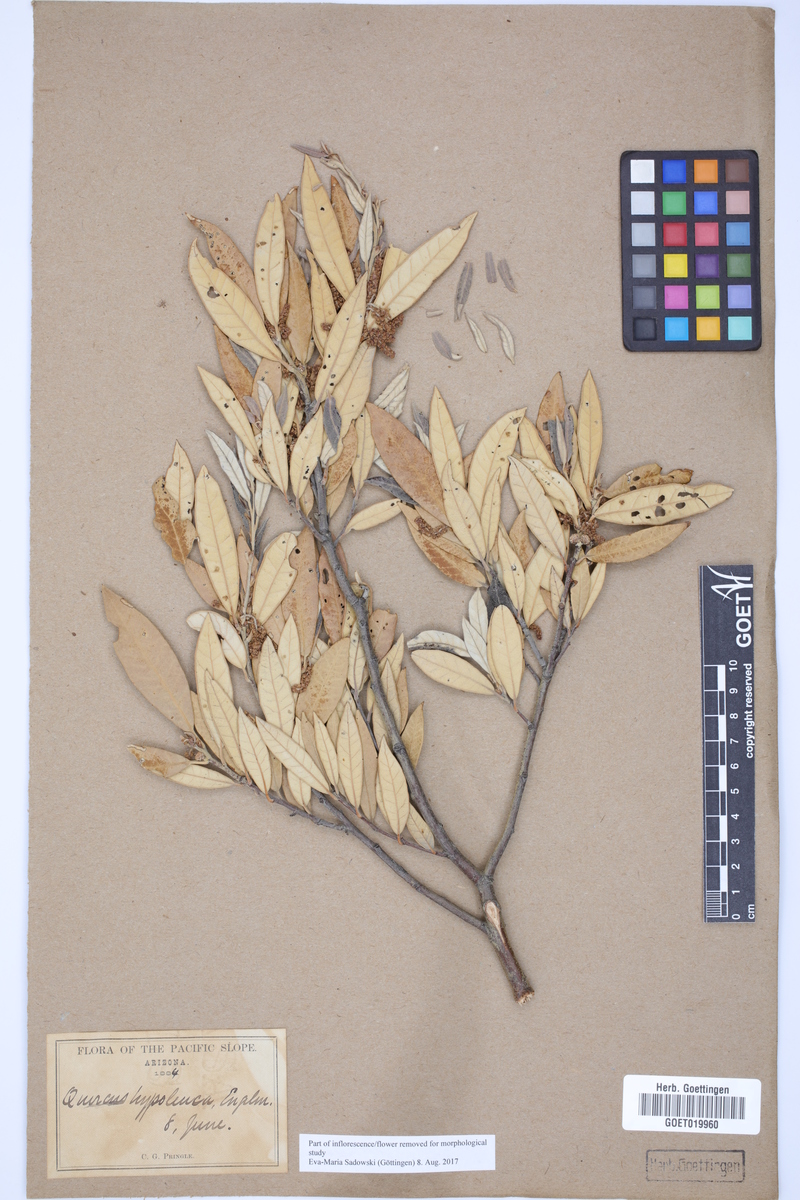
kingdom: Plantae
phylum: Tracheophyta
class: Magnoliopsida
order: Fagales
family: Fagaceae
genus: Quercus
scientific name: Quercus hypoleucoides
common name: Silverleaf oak
